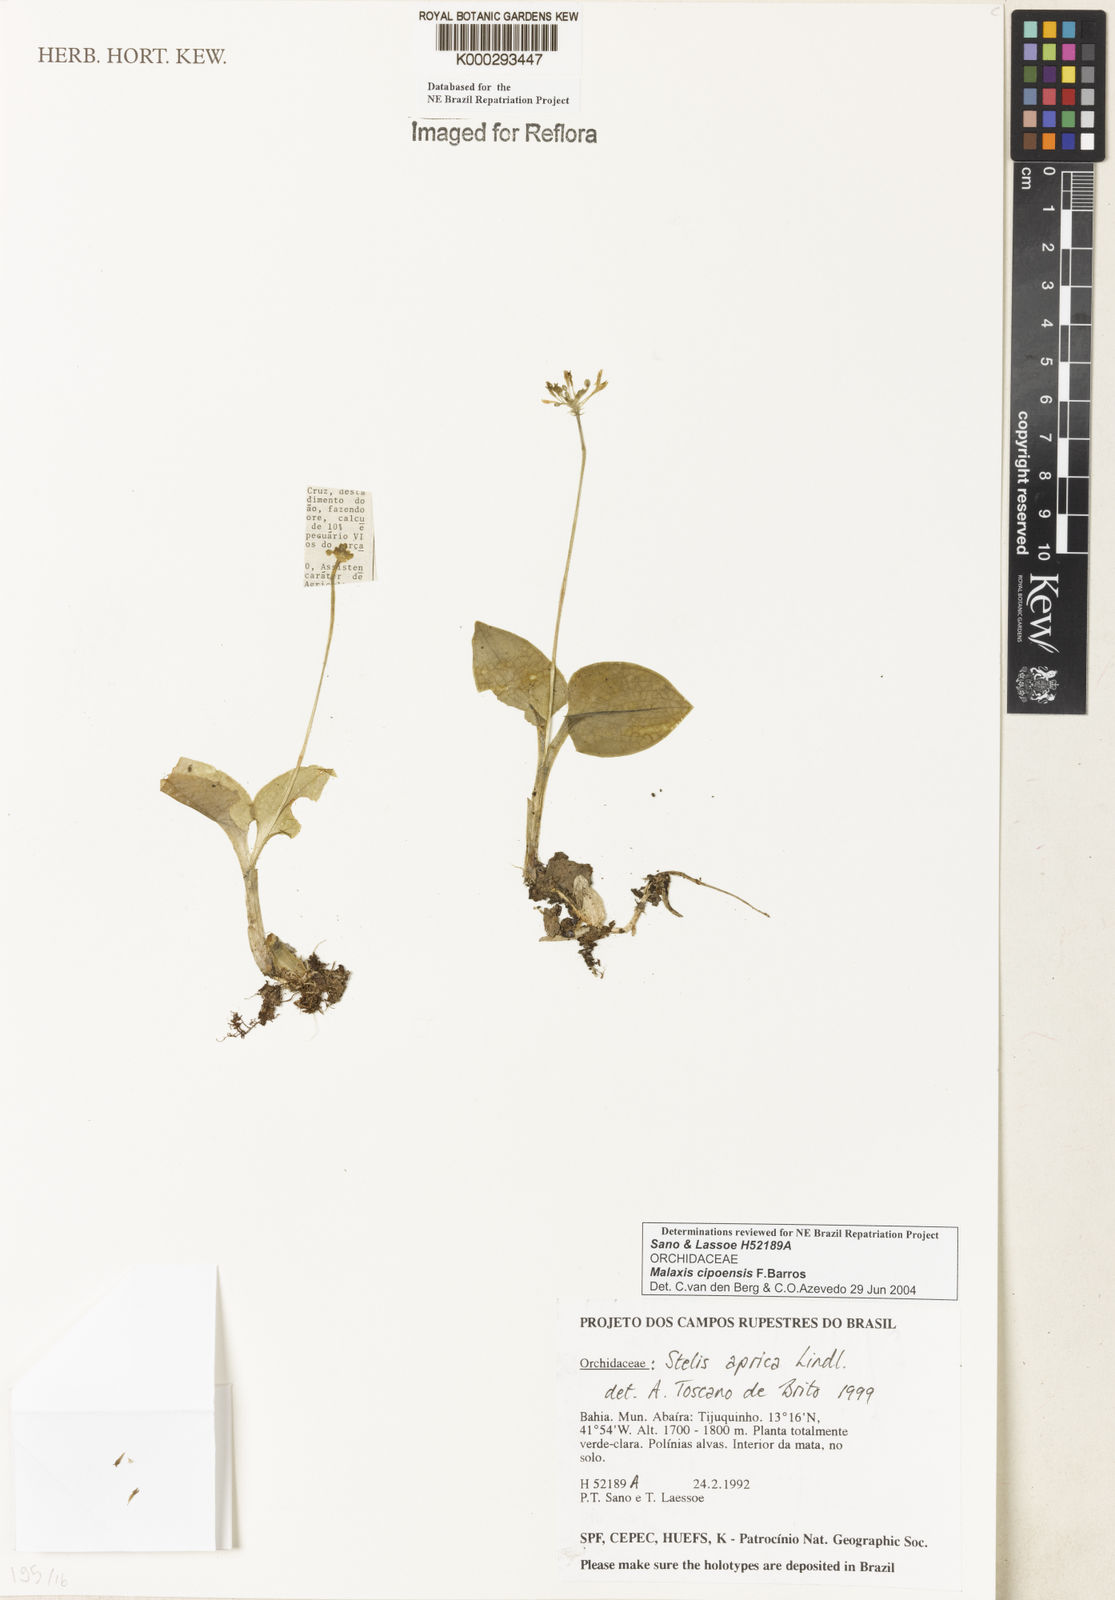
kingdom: Plantae
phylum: Tracheophyta
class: Liliopsida
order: Asparagales
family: Orchidaceae
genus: Malaxis
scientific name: Malaxis cipoensis
